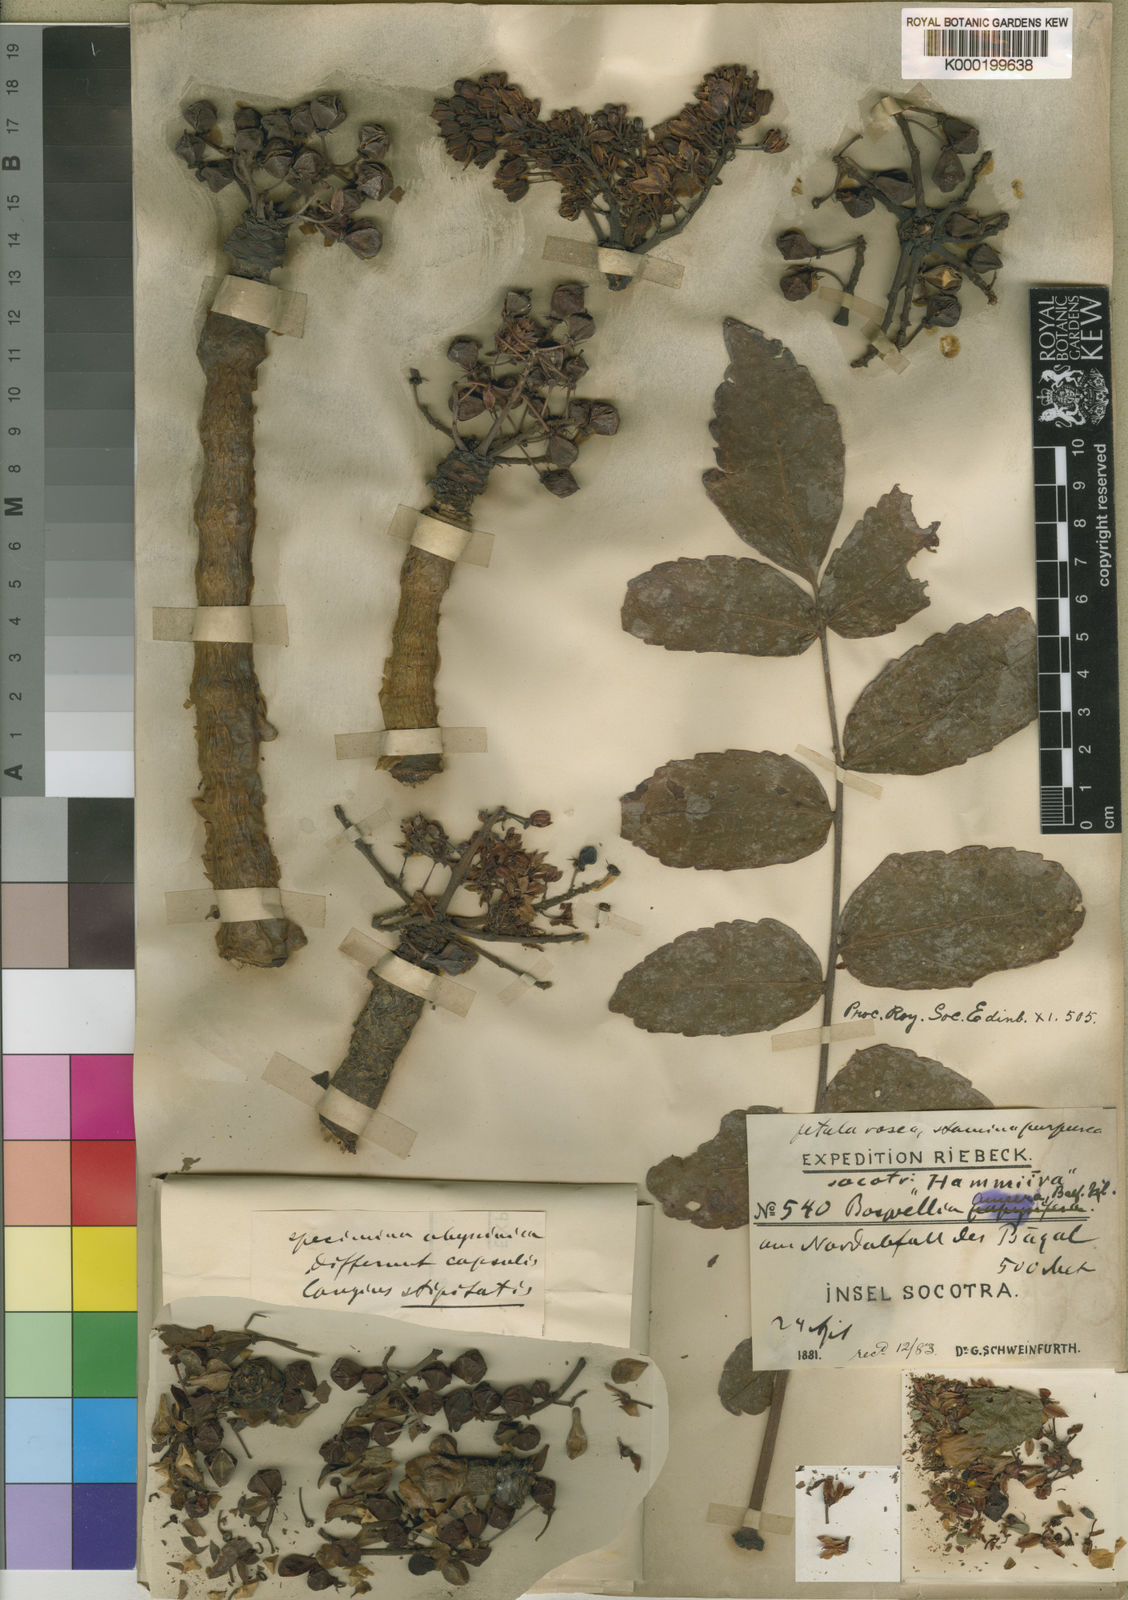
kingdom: Plantae
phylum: Tracheophyta
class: Magnoliopsida
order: Sapindales
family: Burseraceae
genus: Boswellia
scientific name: Boswellia ameero
